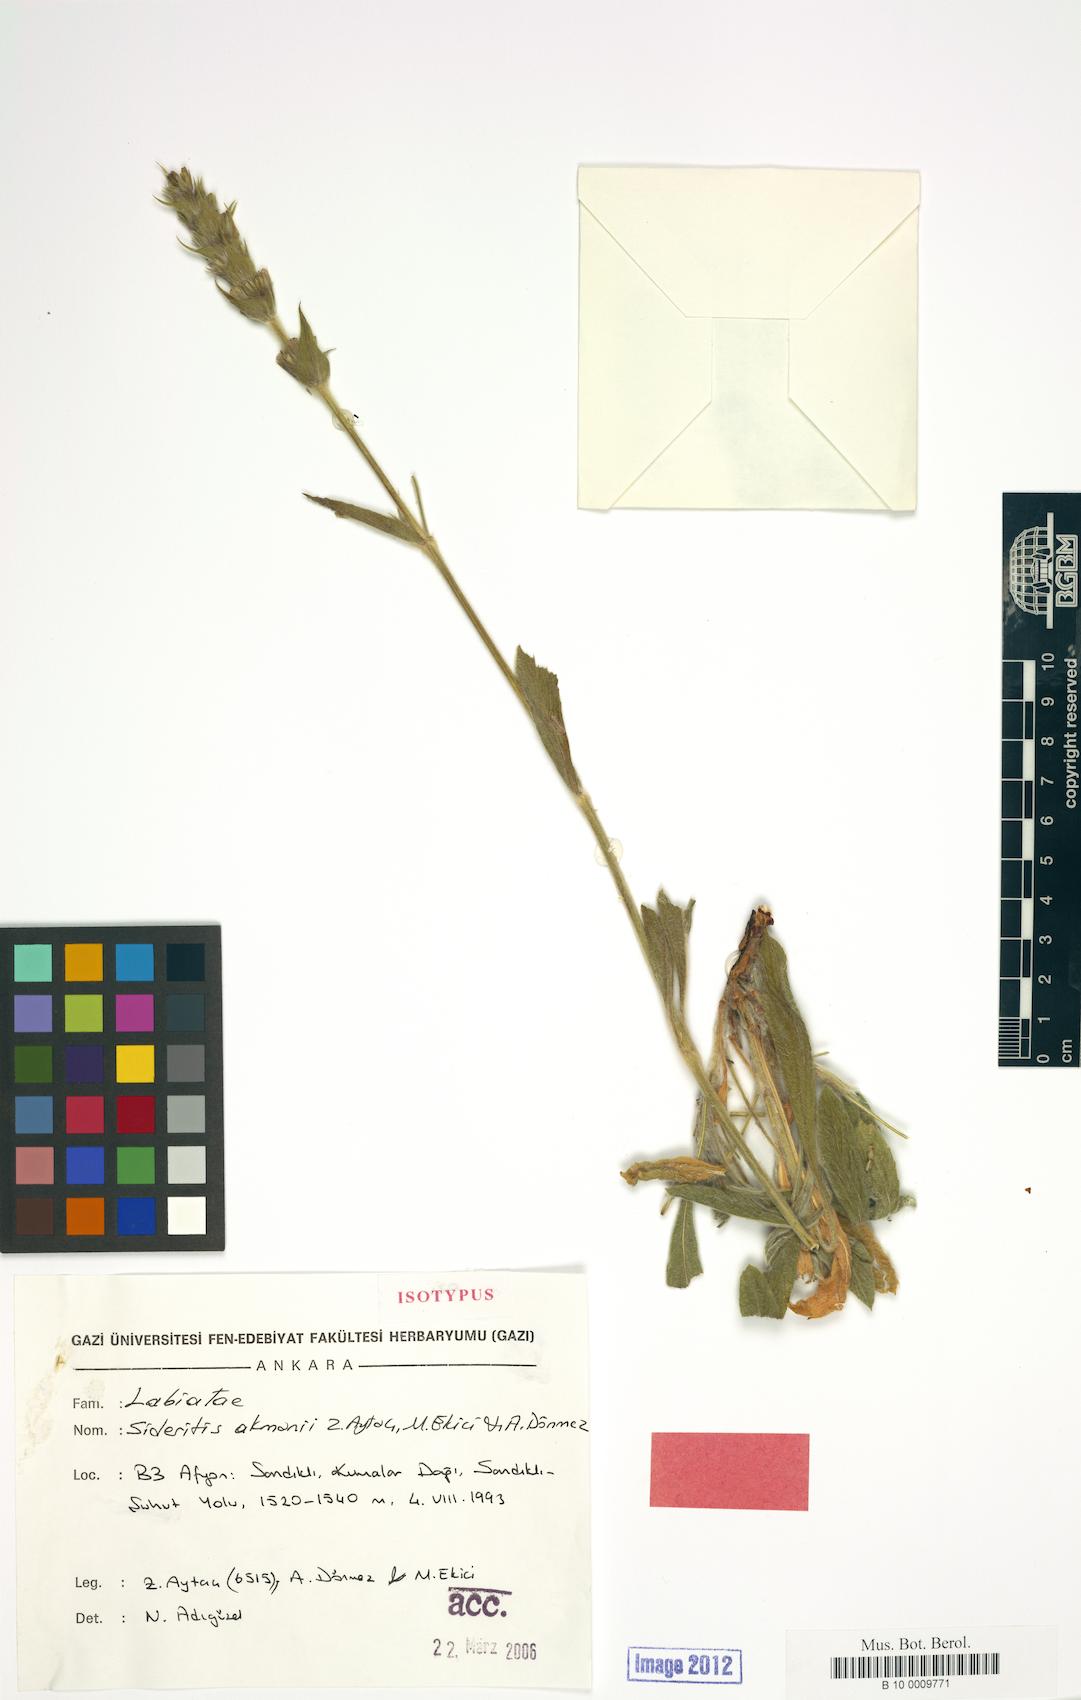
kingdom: Plantae
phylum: Tracheophyta
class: Magnoliopsida
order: Lamiales
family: Lamiaceae
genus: Sideritis
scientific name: Sideritis akmanii
